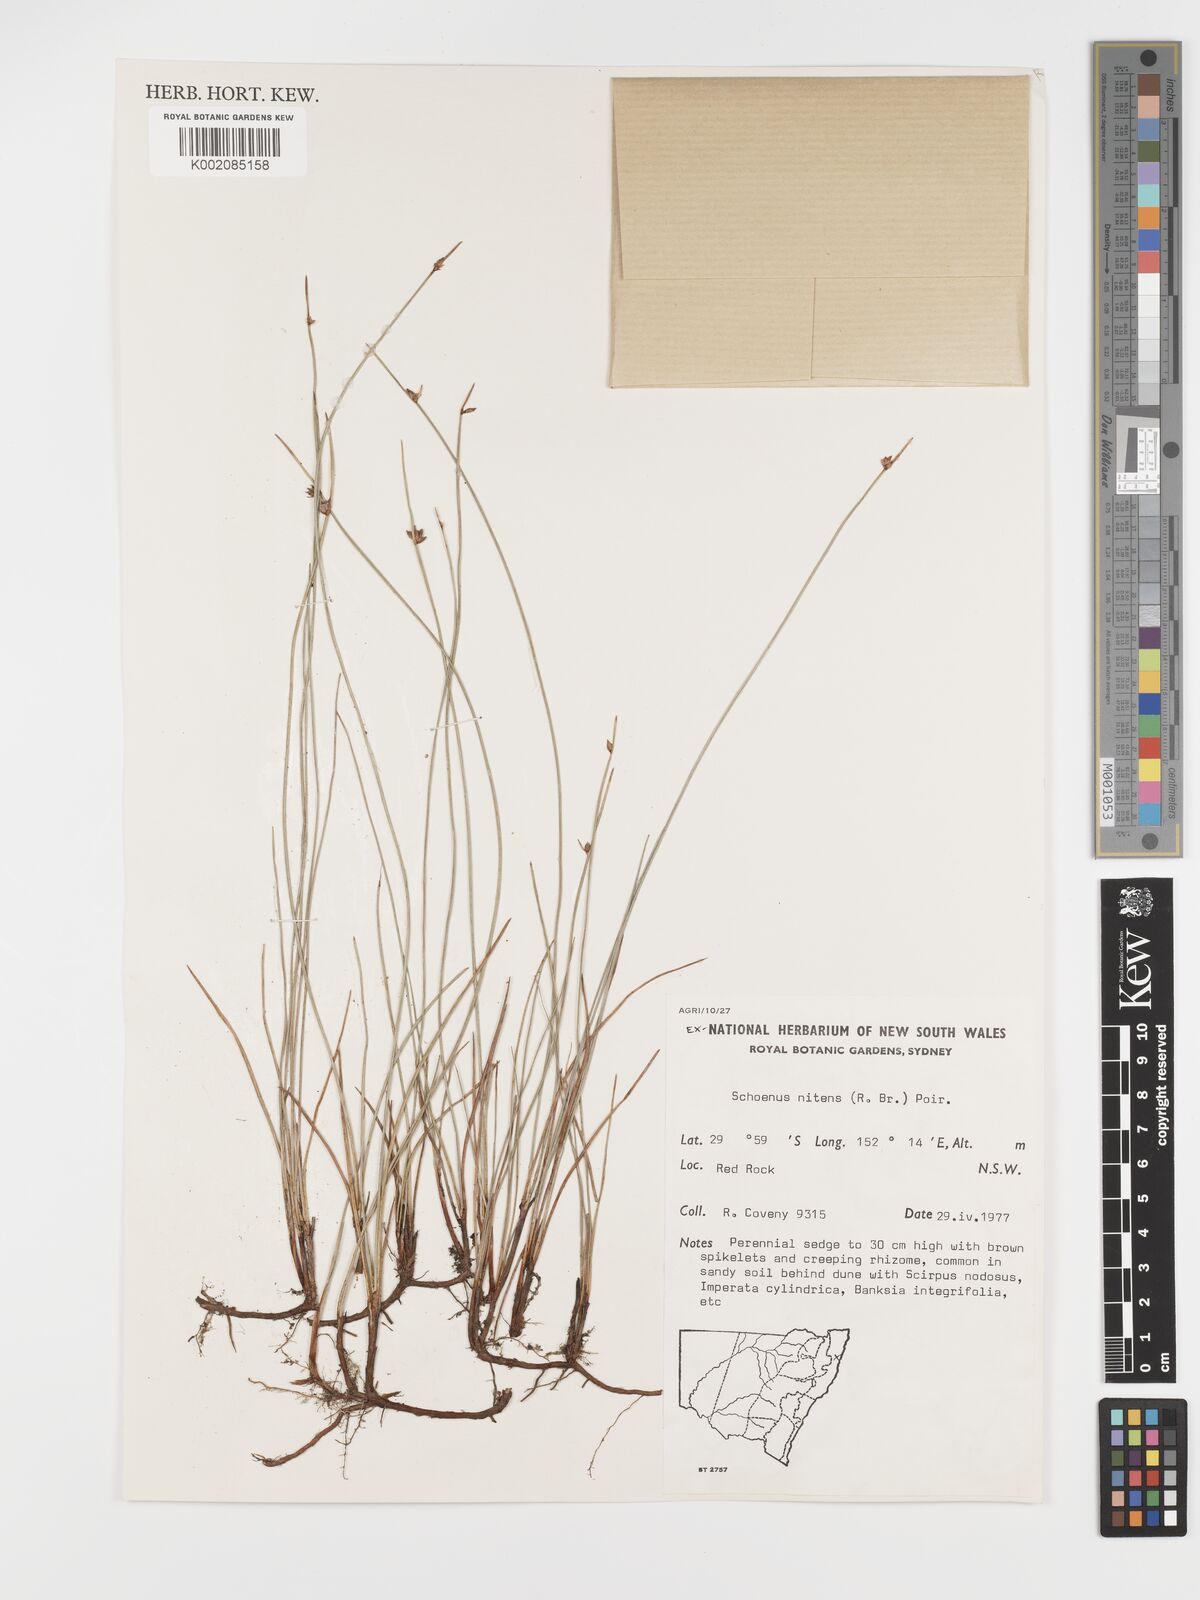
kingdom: Plantae
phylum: Tracheophyta
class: Liliopsida
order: Poales
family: Cyperaceae
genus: Schoenus
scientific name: Schoenus nitens
